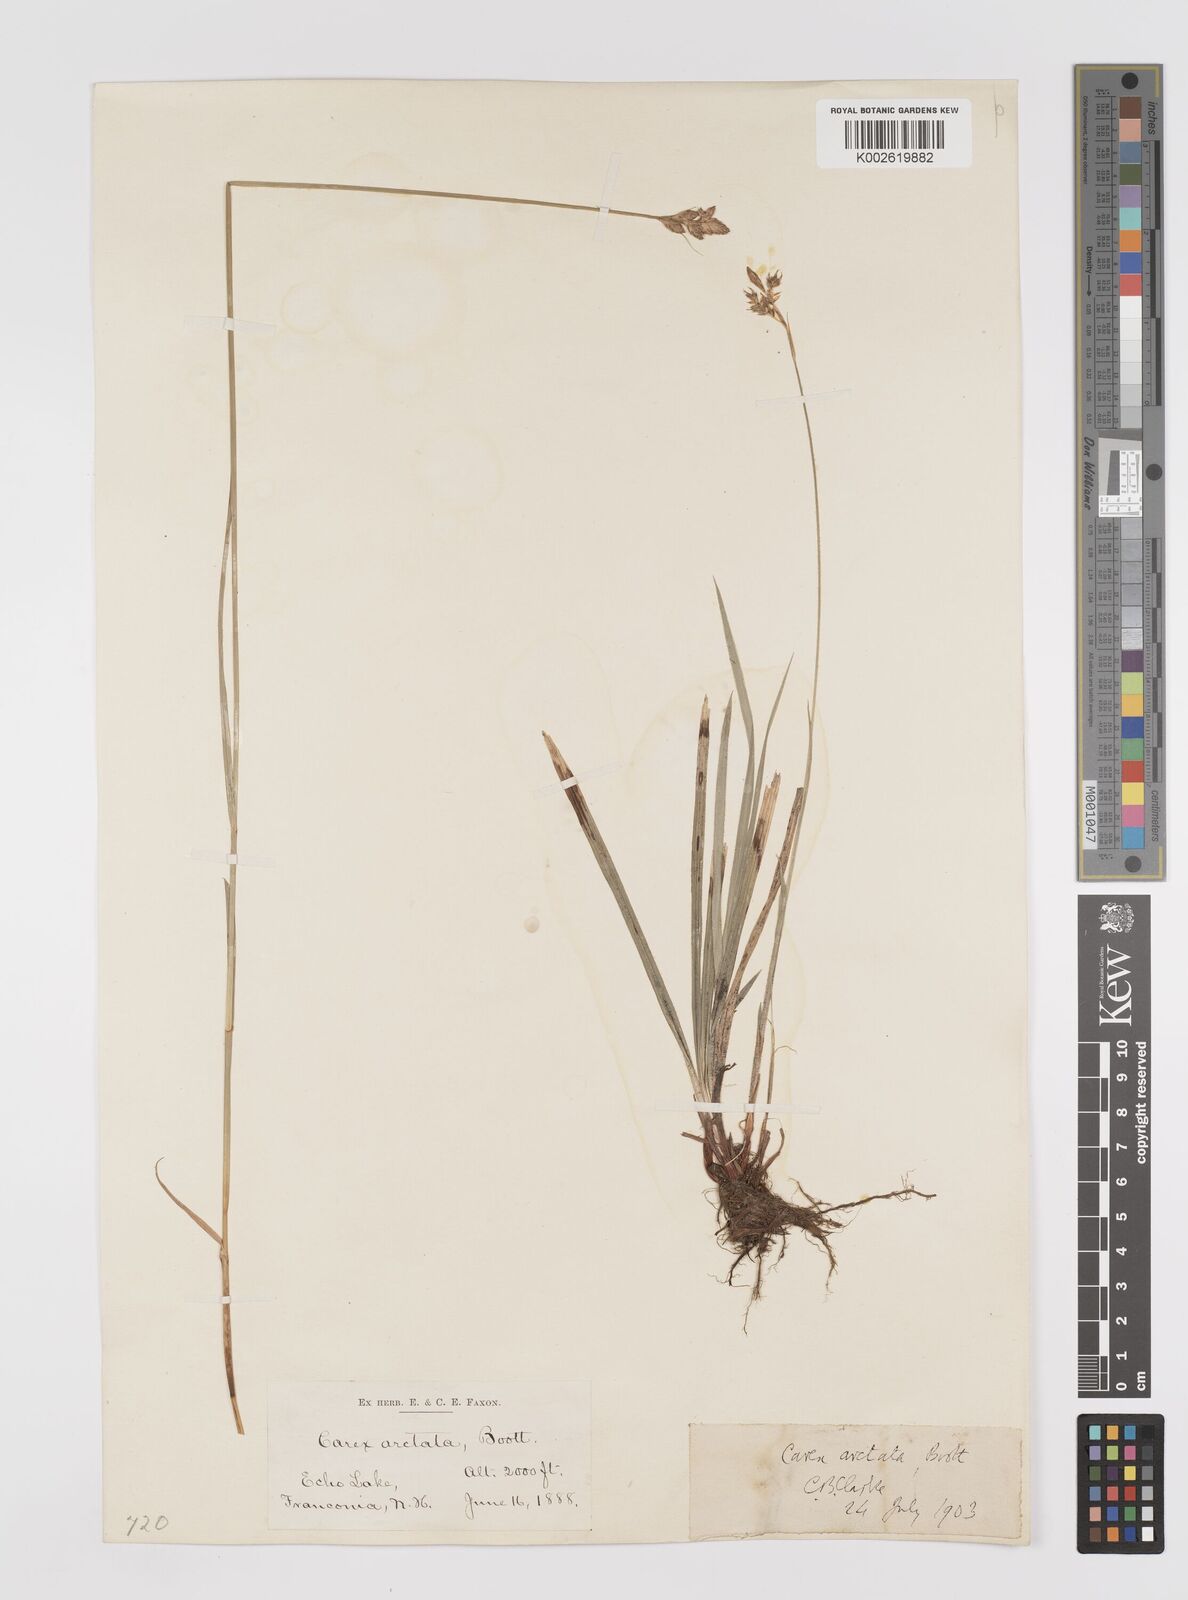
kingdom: Plantae
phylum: Tracheophyta
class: Liliopsida
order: Poales
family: Cyperaceae
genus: Carex
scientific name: Carex arctata
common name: Black sedge
